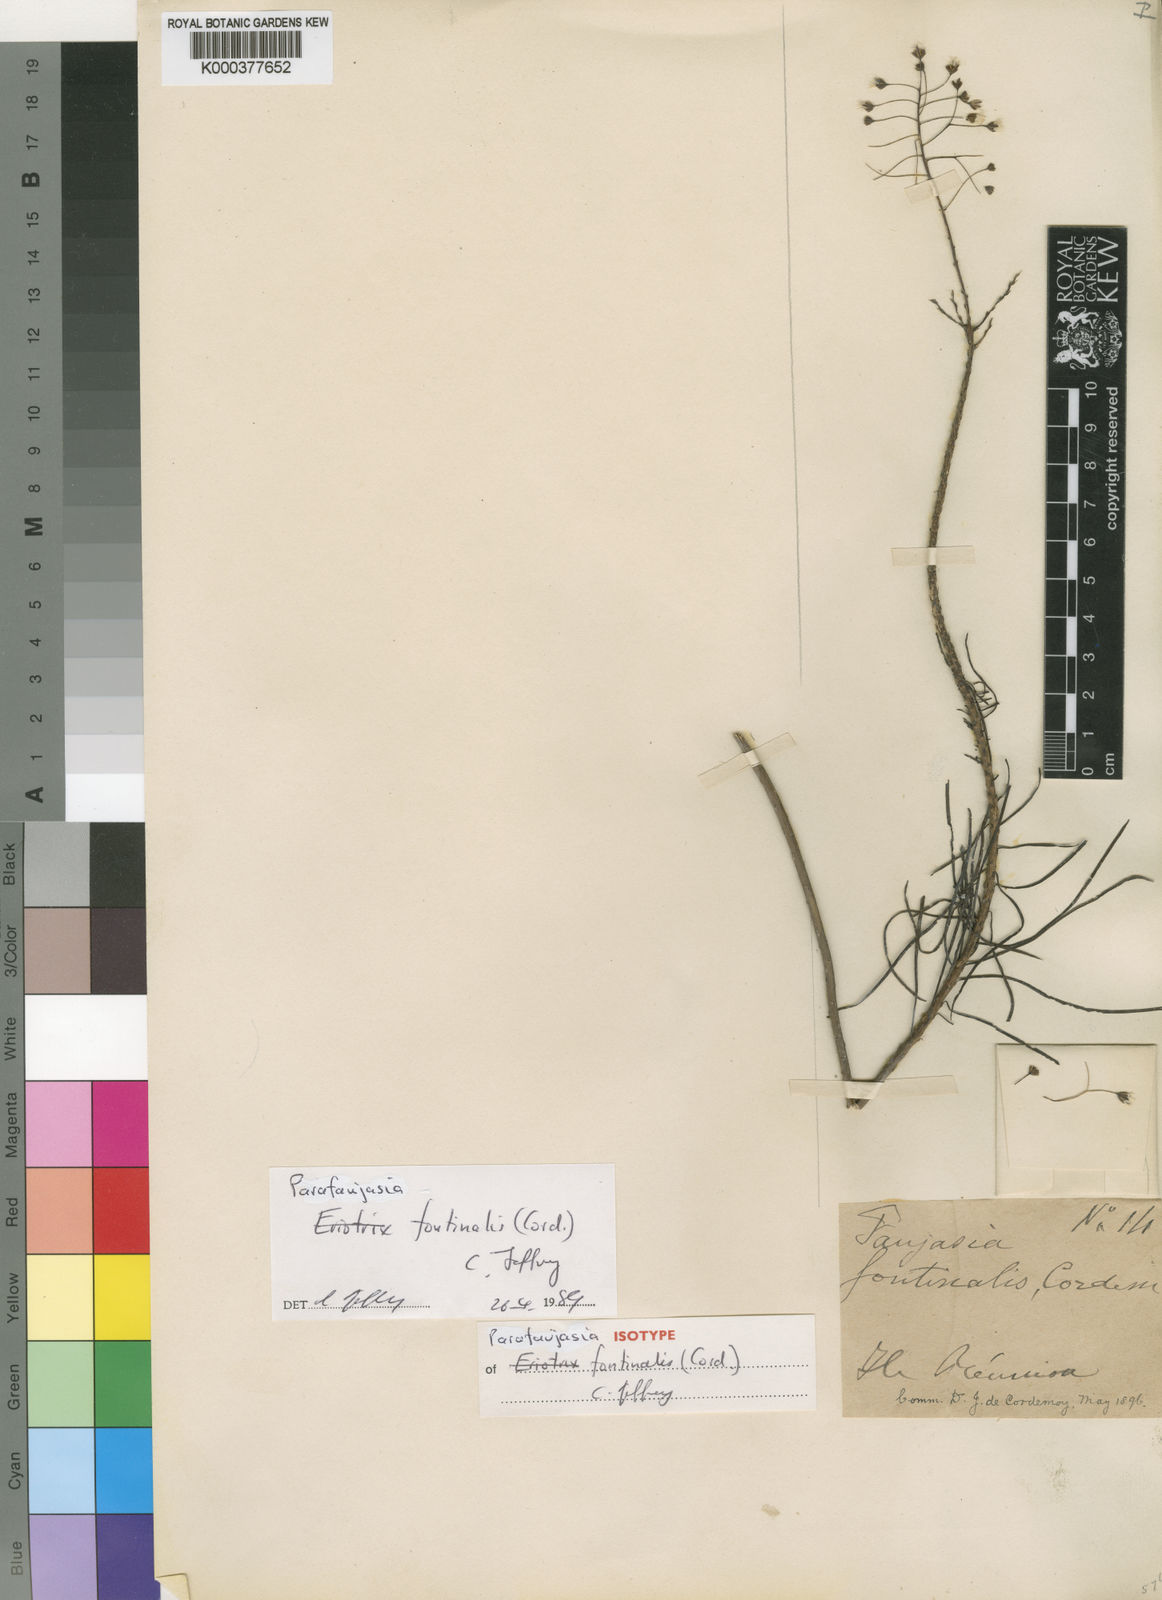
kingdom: Plantae
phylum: Tracheophyta
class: Magnoliopsida
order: Asterales
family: Asteraceae
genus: Parafaujasia
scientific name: Parafaujasia fontinalis
